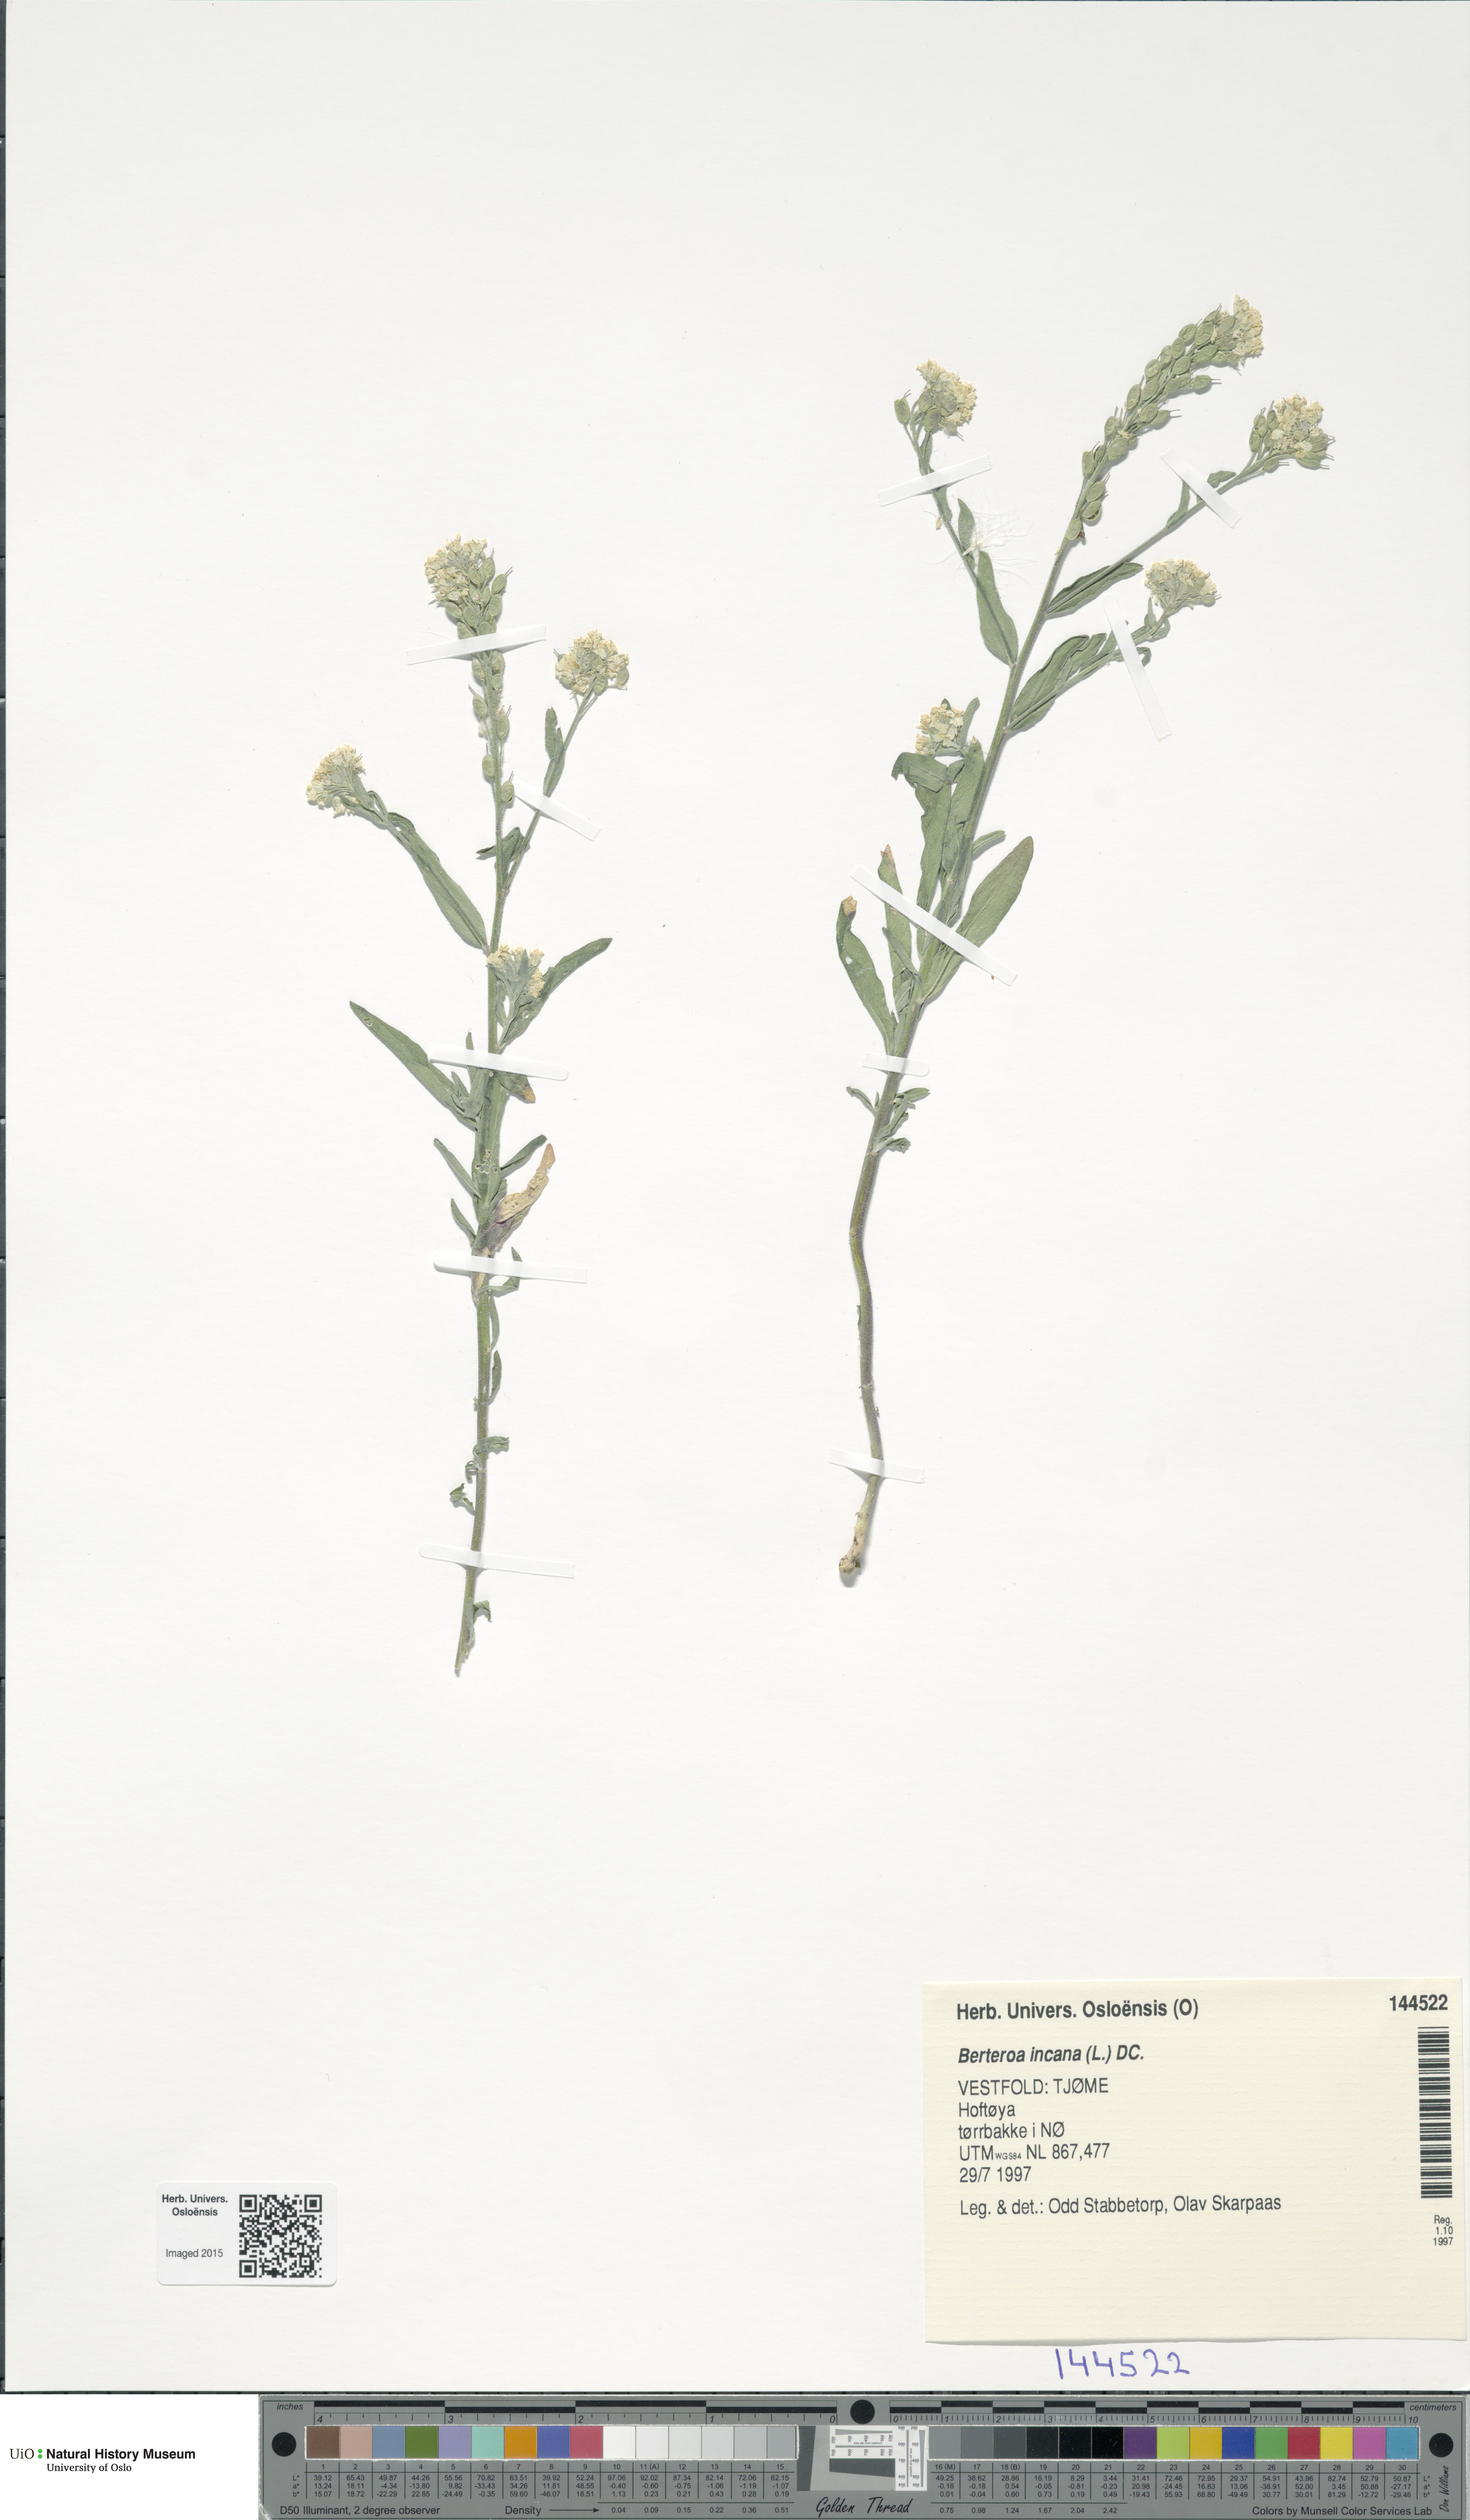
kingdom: Plantae
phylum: Tracheophyta
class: Magnoliopsida
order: Brassicales
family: Brassicaceae
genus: Berteroa
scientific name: Berteroa incana
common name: Hoary alison
